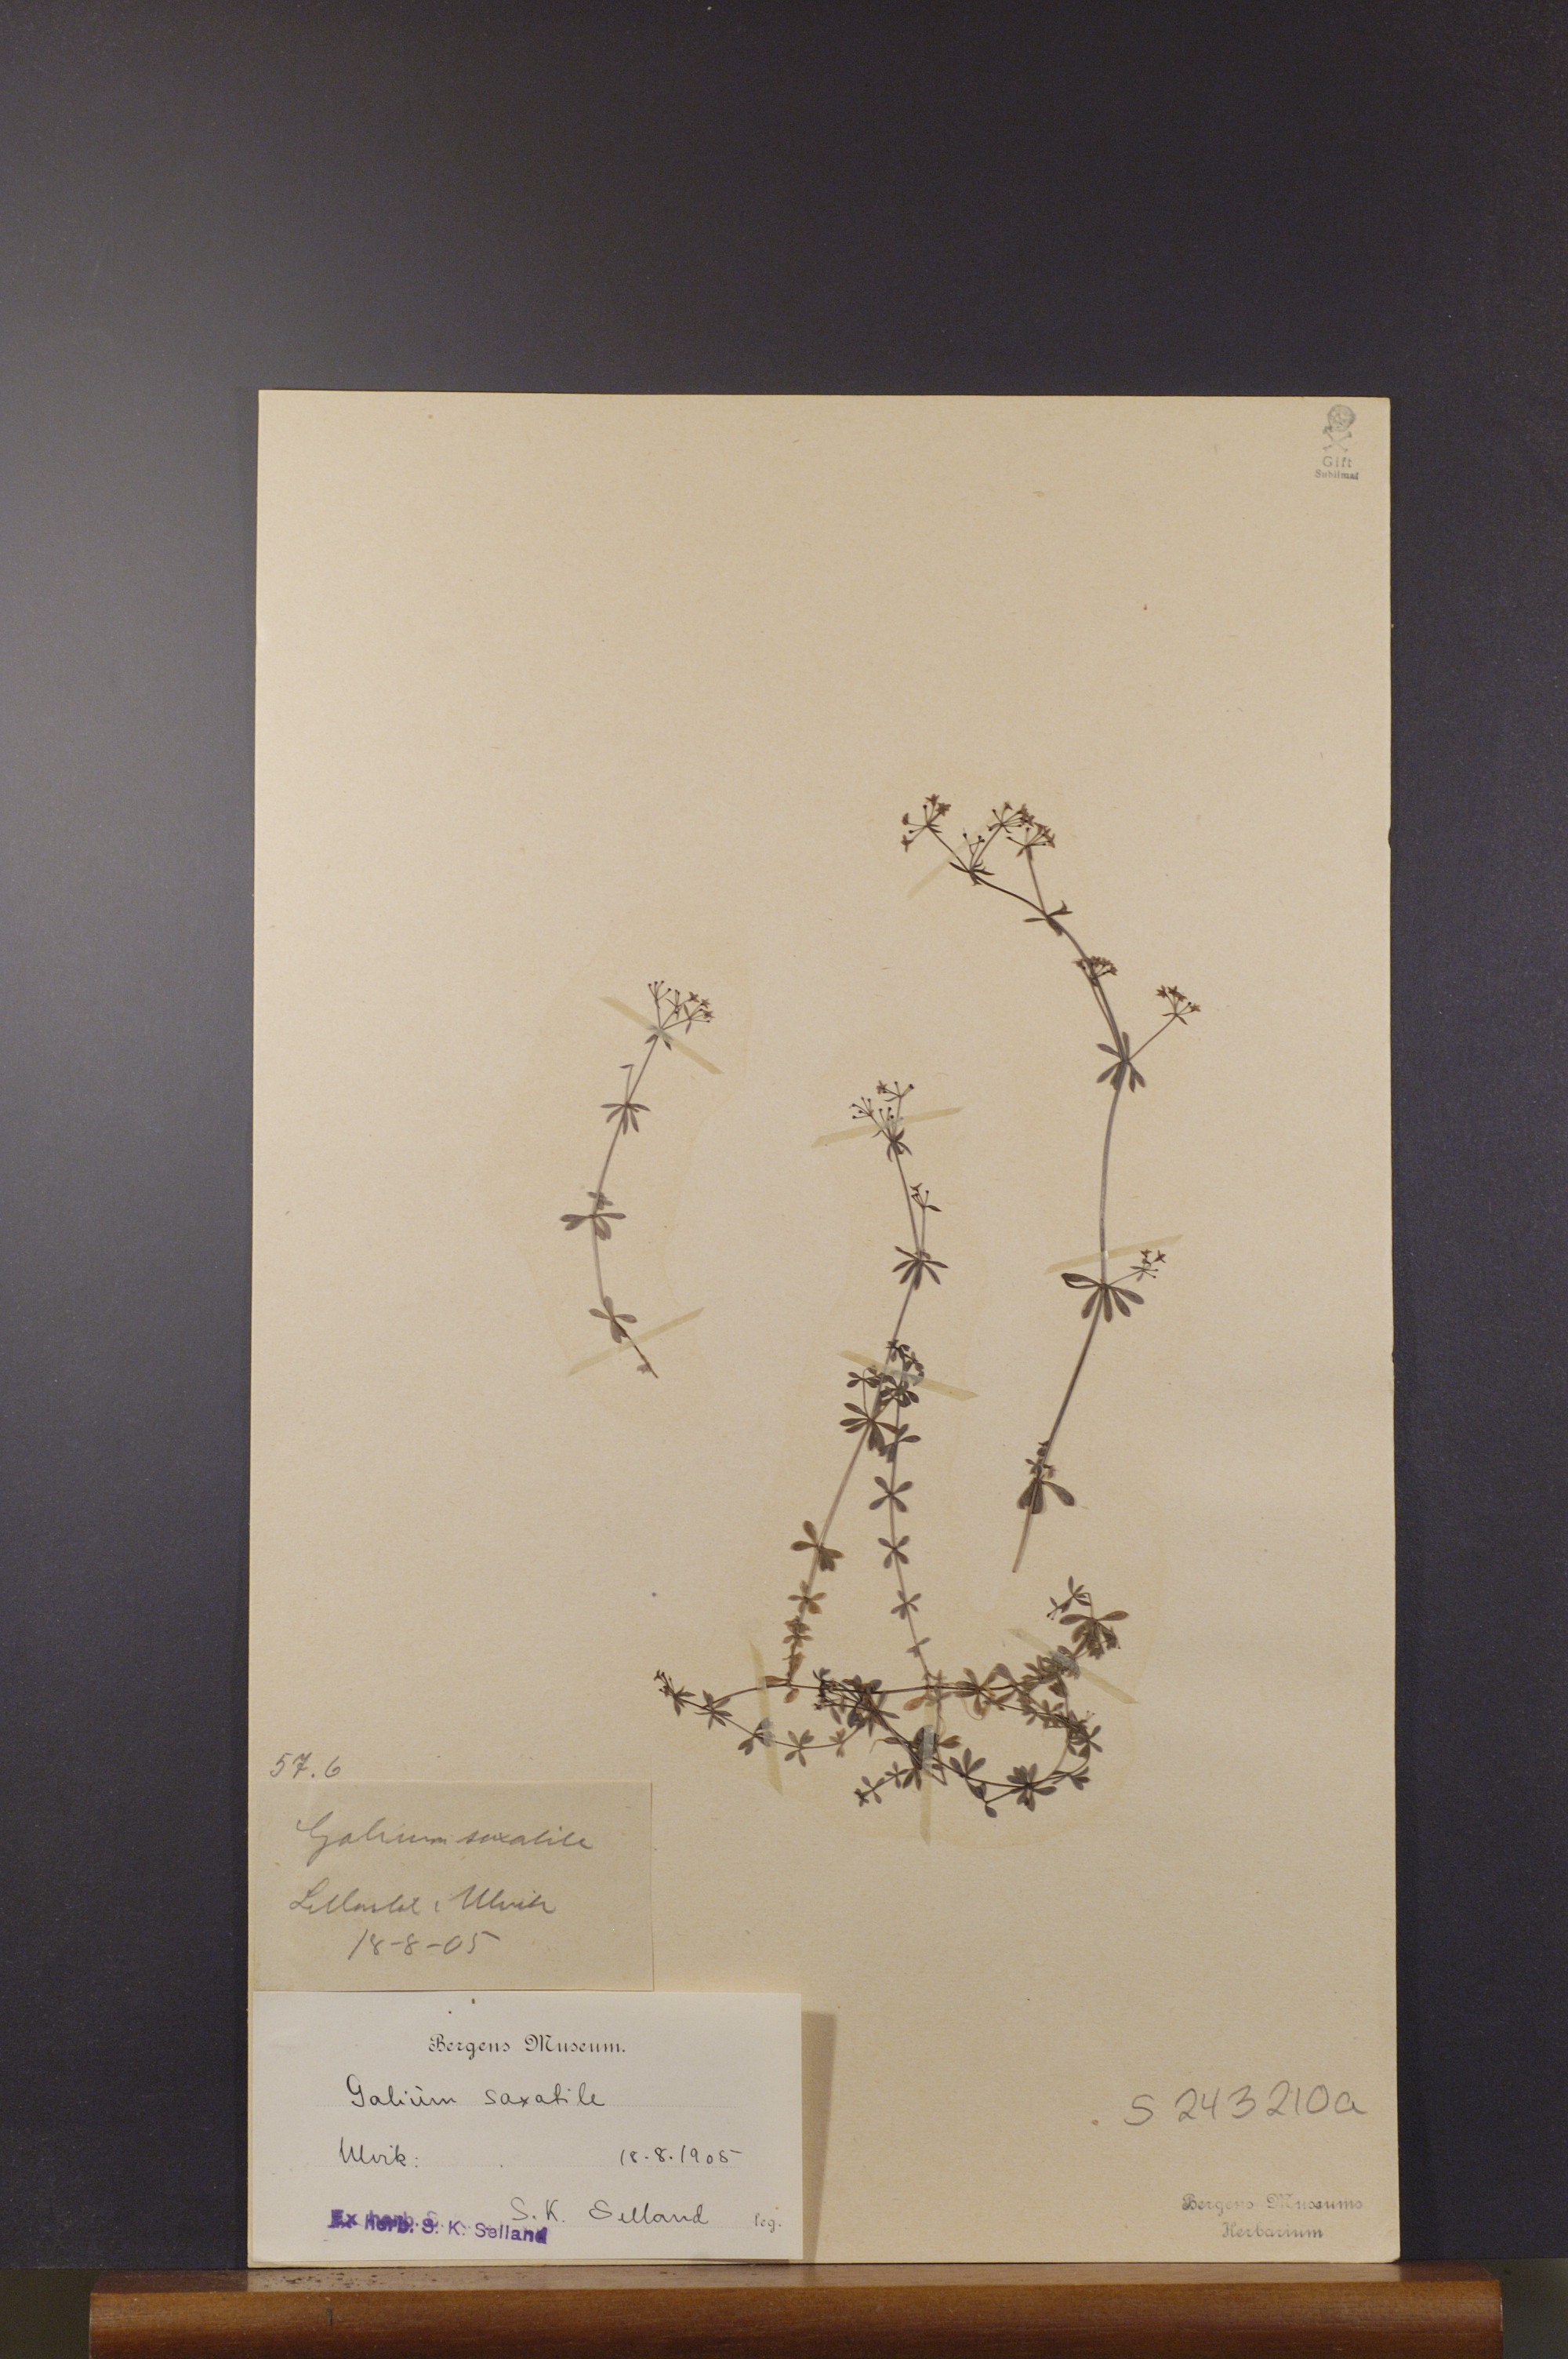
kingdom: Plantae
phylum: Tracheophyta
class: Magnoliopsida
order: Gentianales
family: Rubiaceae
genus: Galium
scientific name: Galium saxatile
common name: Heath bedstraw
